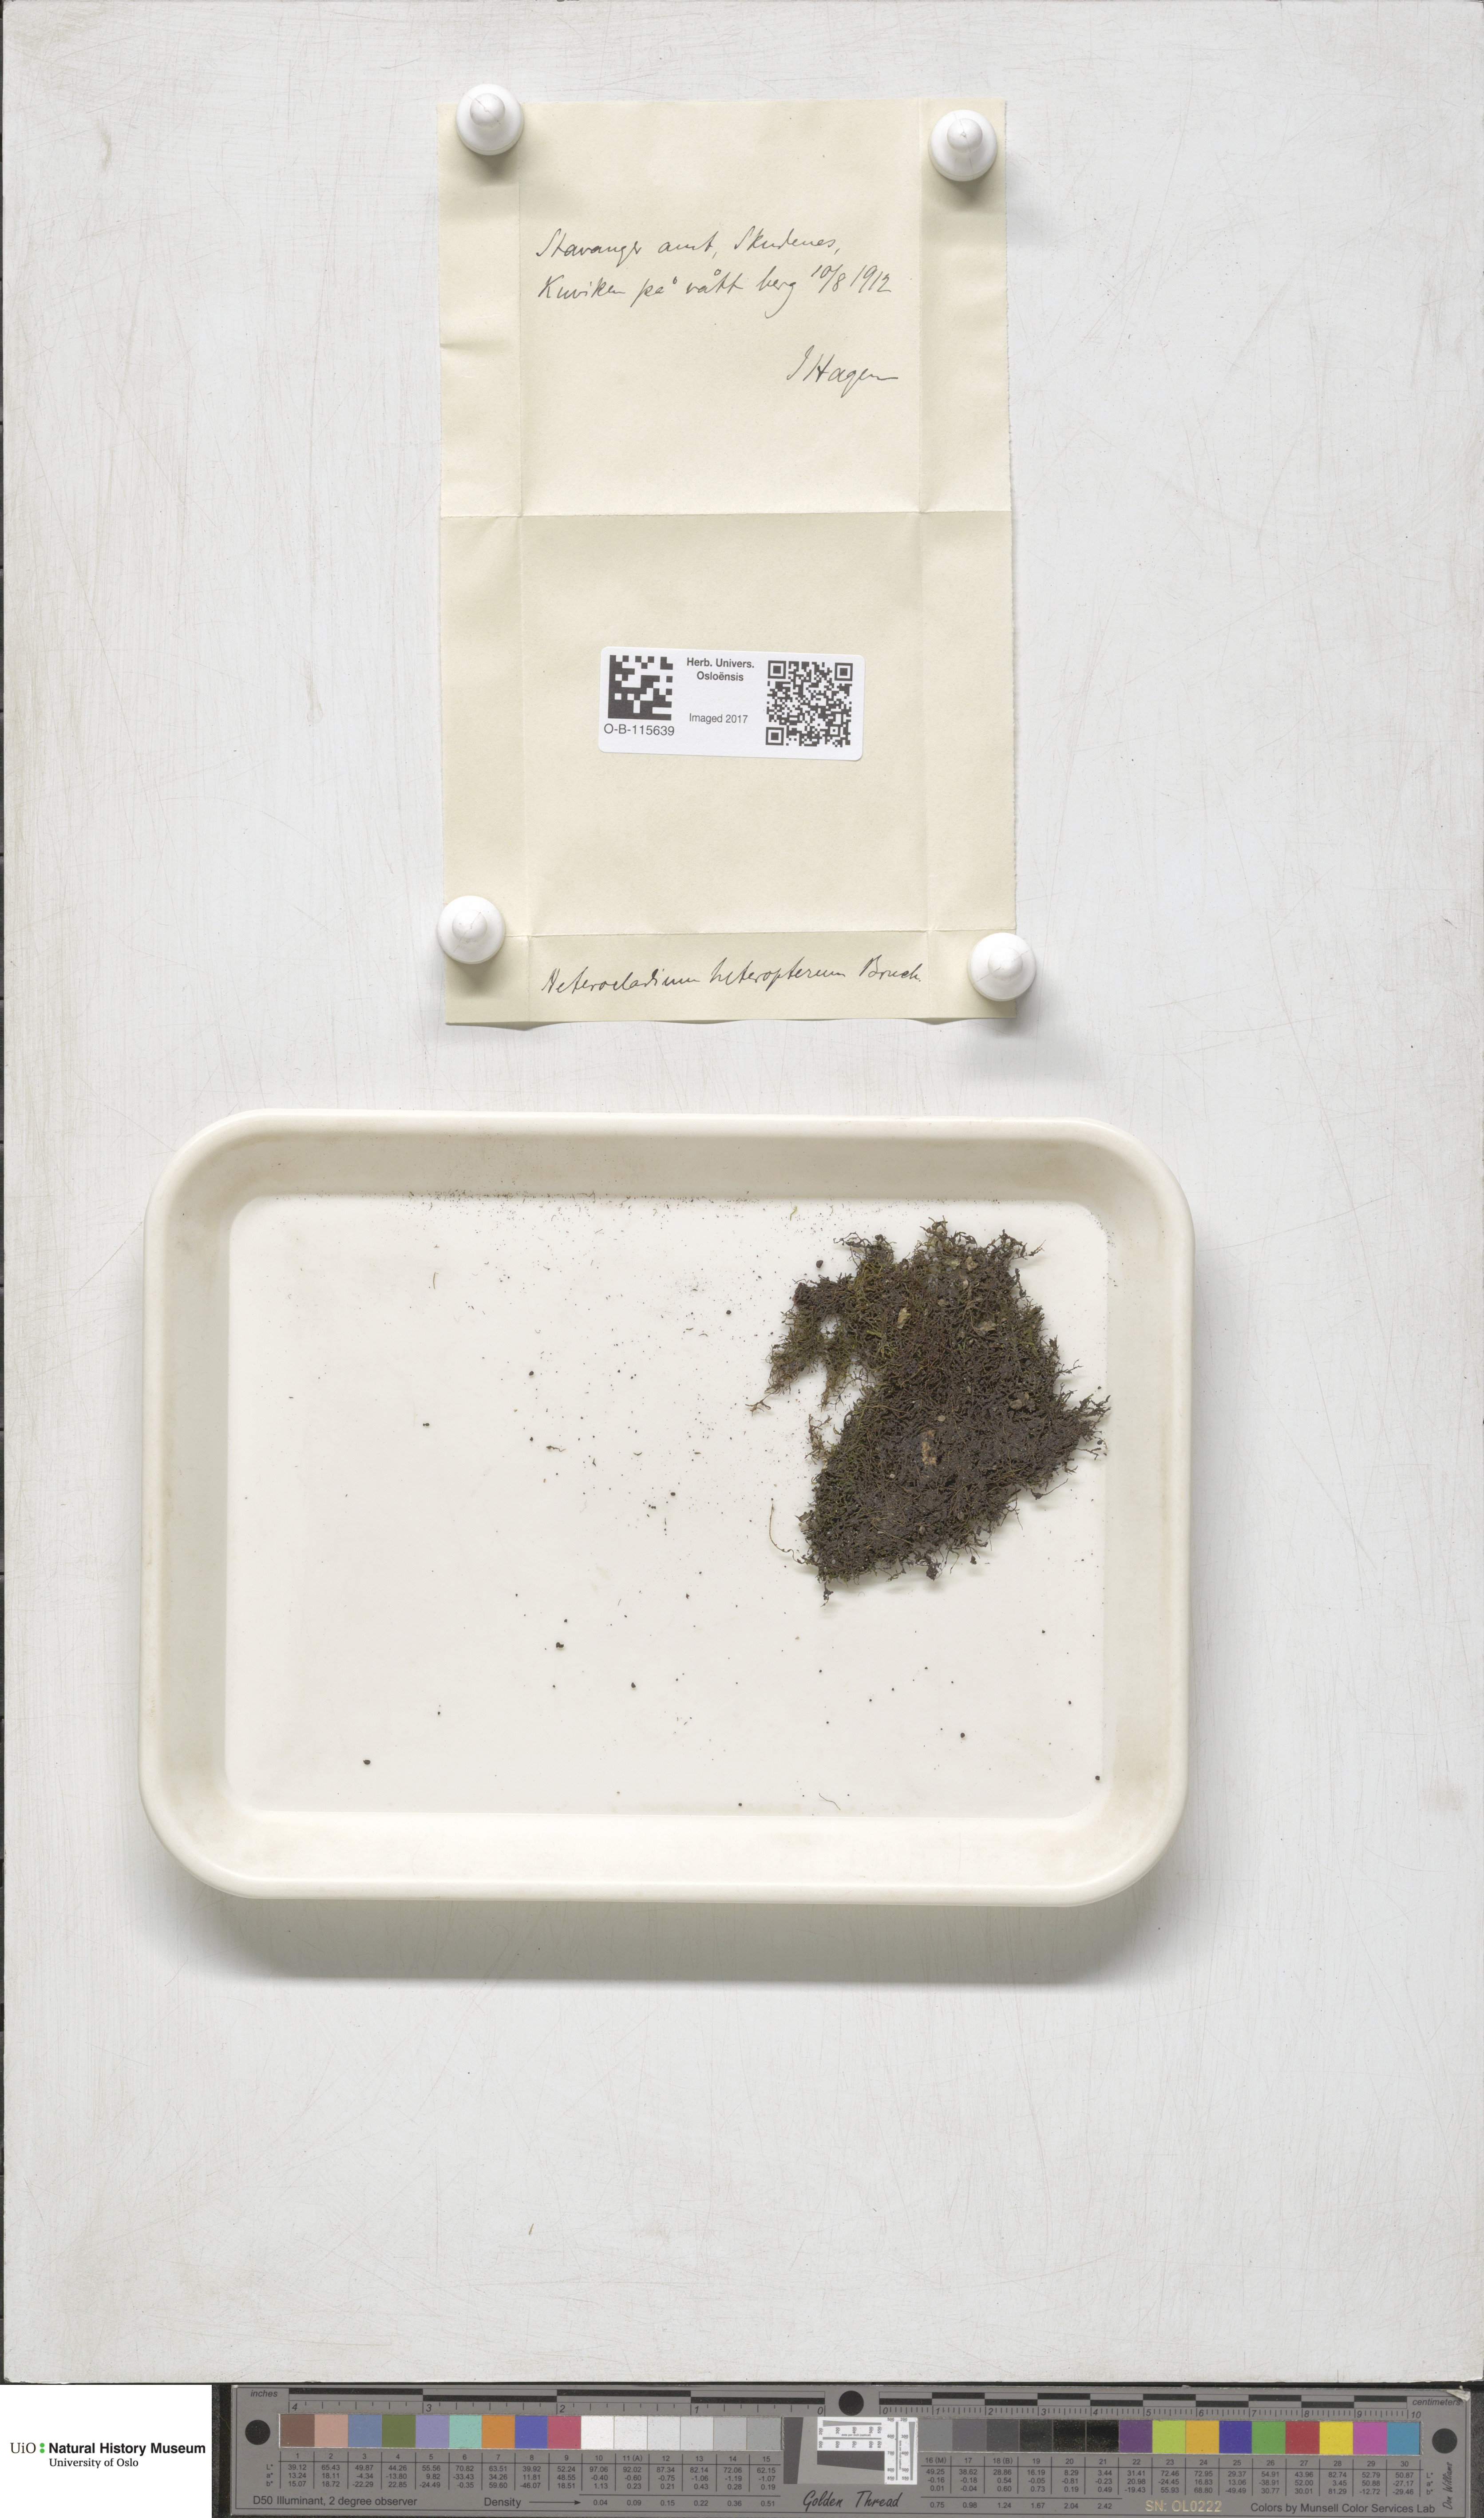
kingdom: Plantae
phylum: Bryophyta
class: Bryopsida
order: Hypnales
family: Lembophyllaceae
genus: Heterocladium
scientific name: Heterocladium heteropterum
